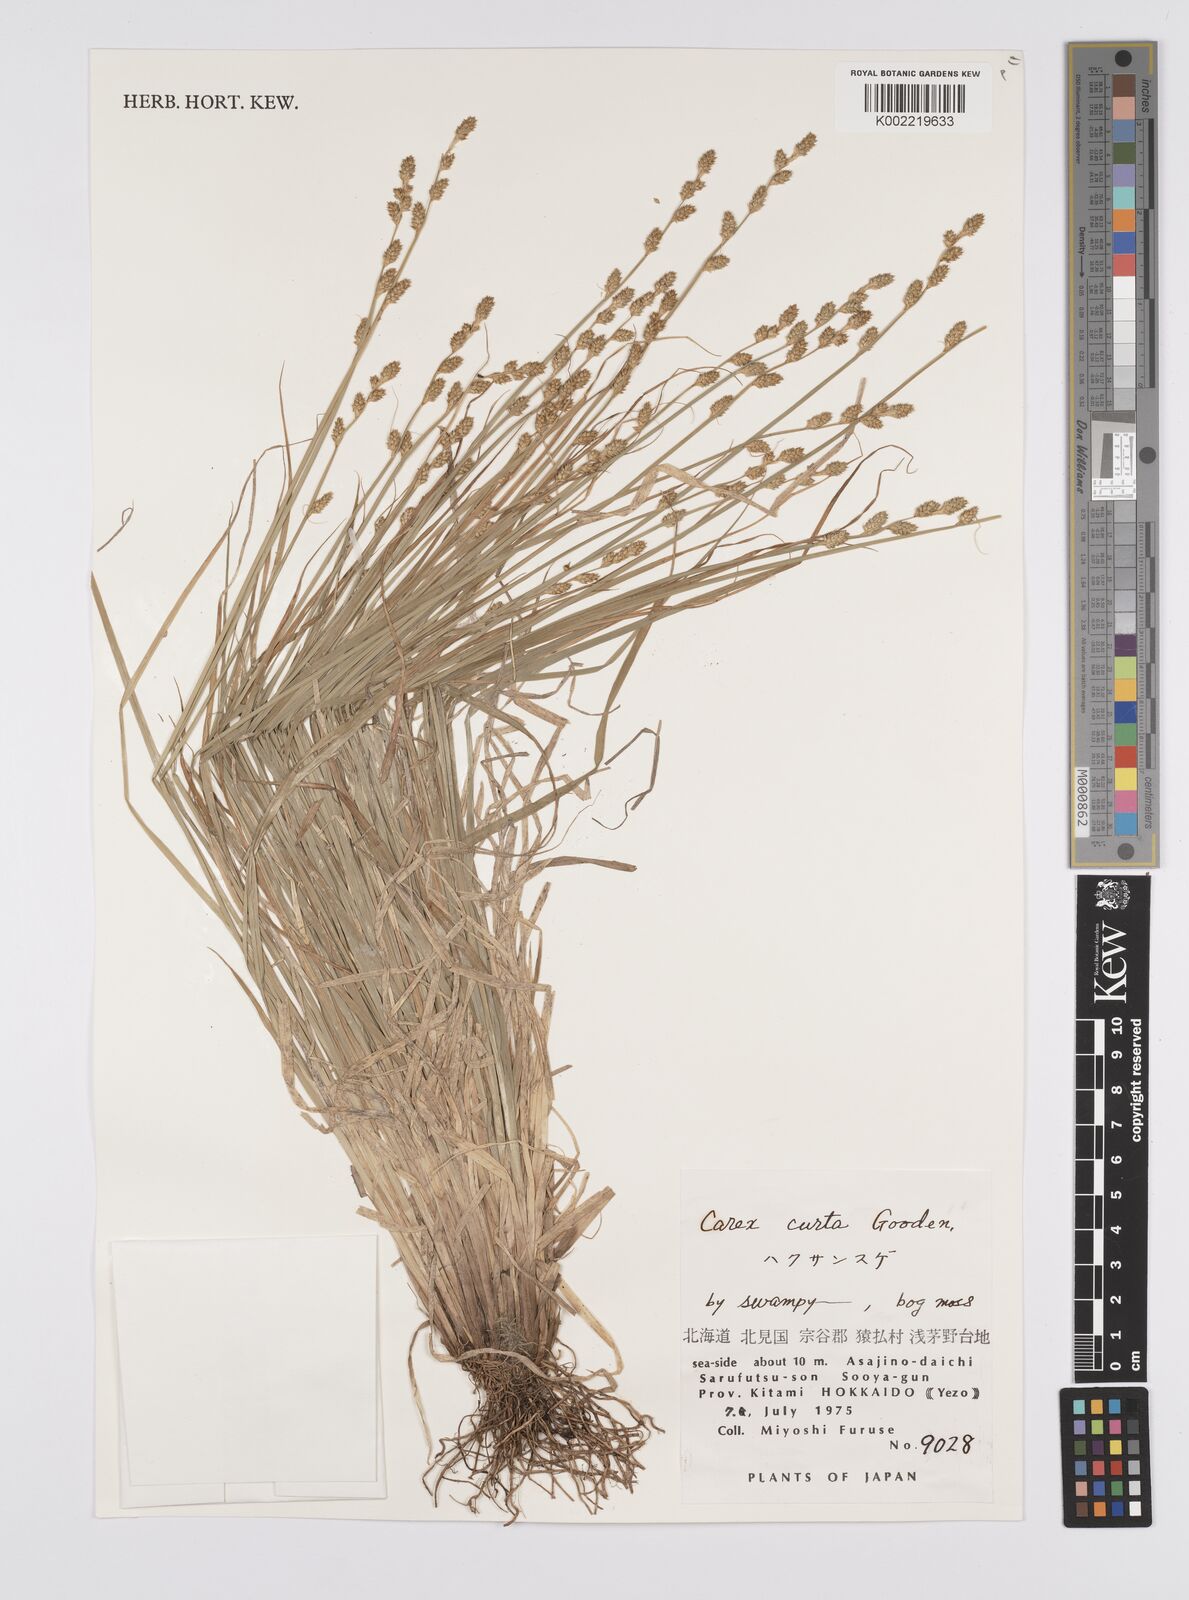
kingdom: Plantae
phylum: Tracheophyta
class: Liliopsida
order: Poales
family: Cyperaceae
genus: Carex
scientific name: Carex canescens
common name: White sedge
